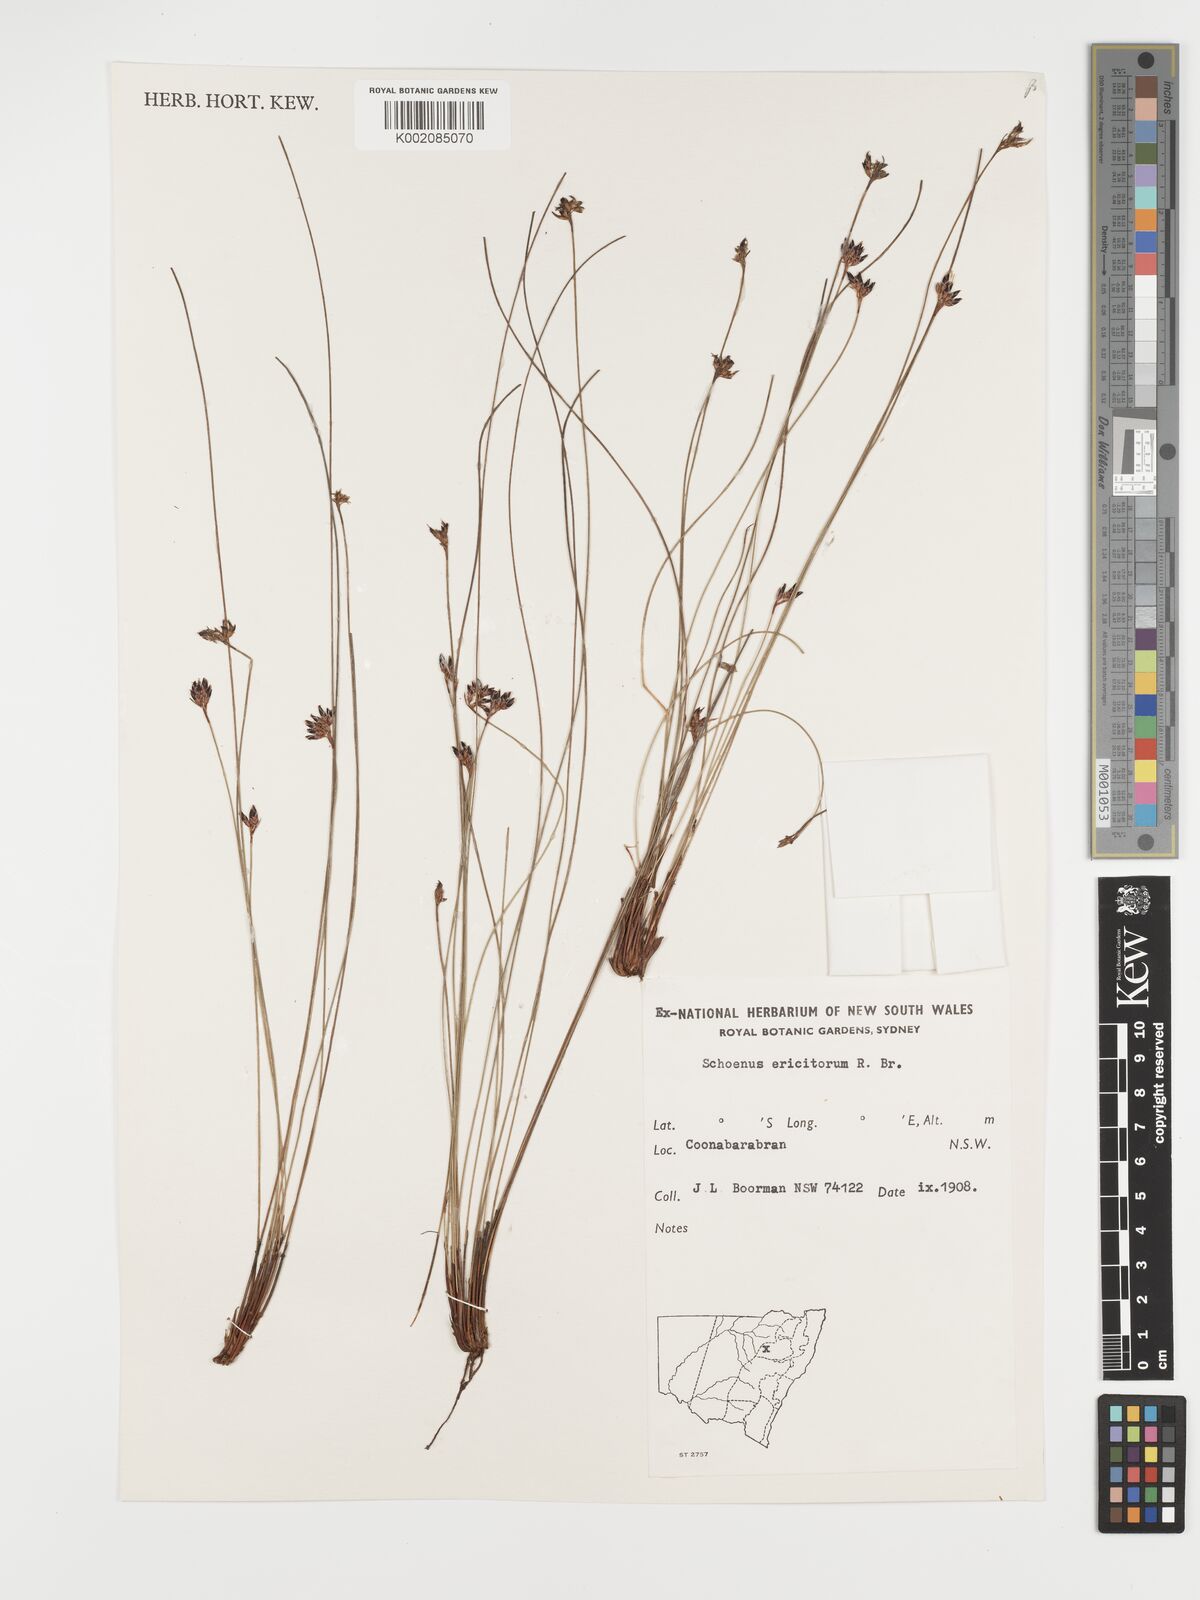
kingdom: Plantae
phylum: Tracheophyta
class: Liliopsida
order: Poales
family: Cyperaceae
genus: Schoenus
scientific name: Schoenus ericetorum
